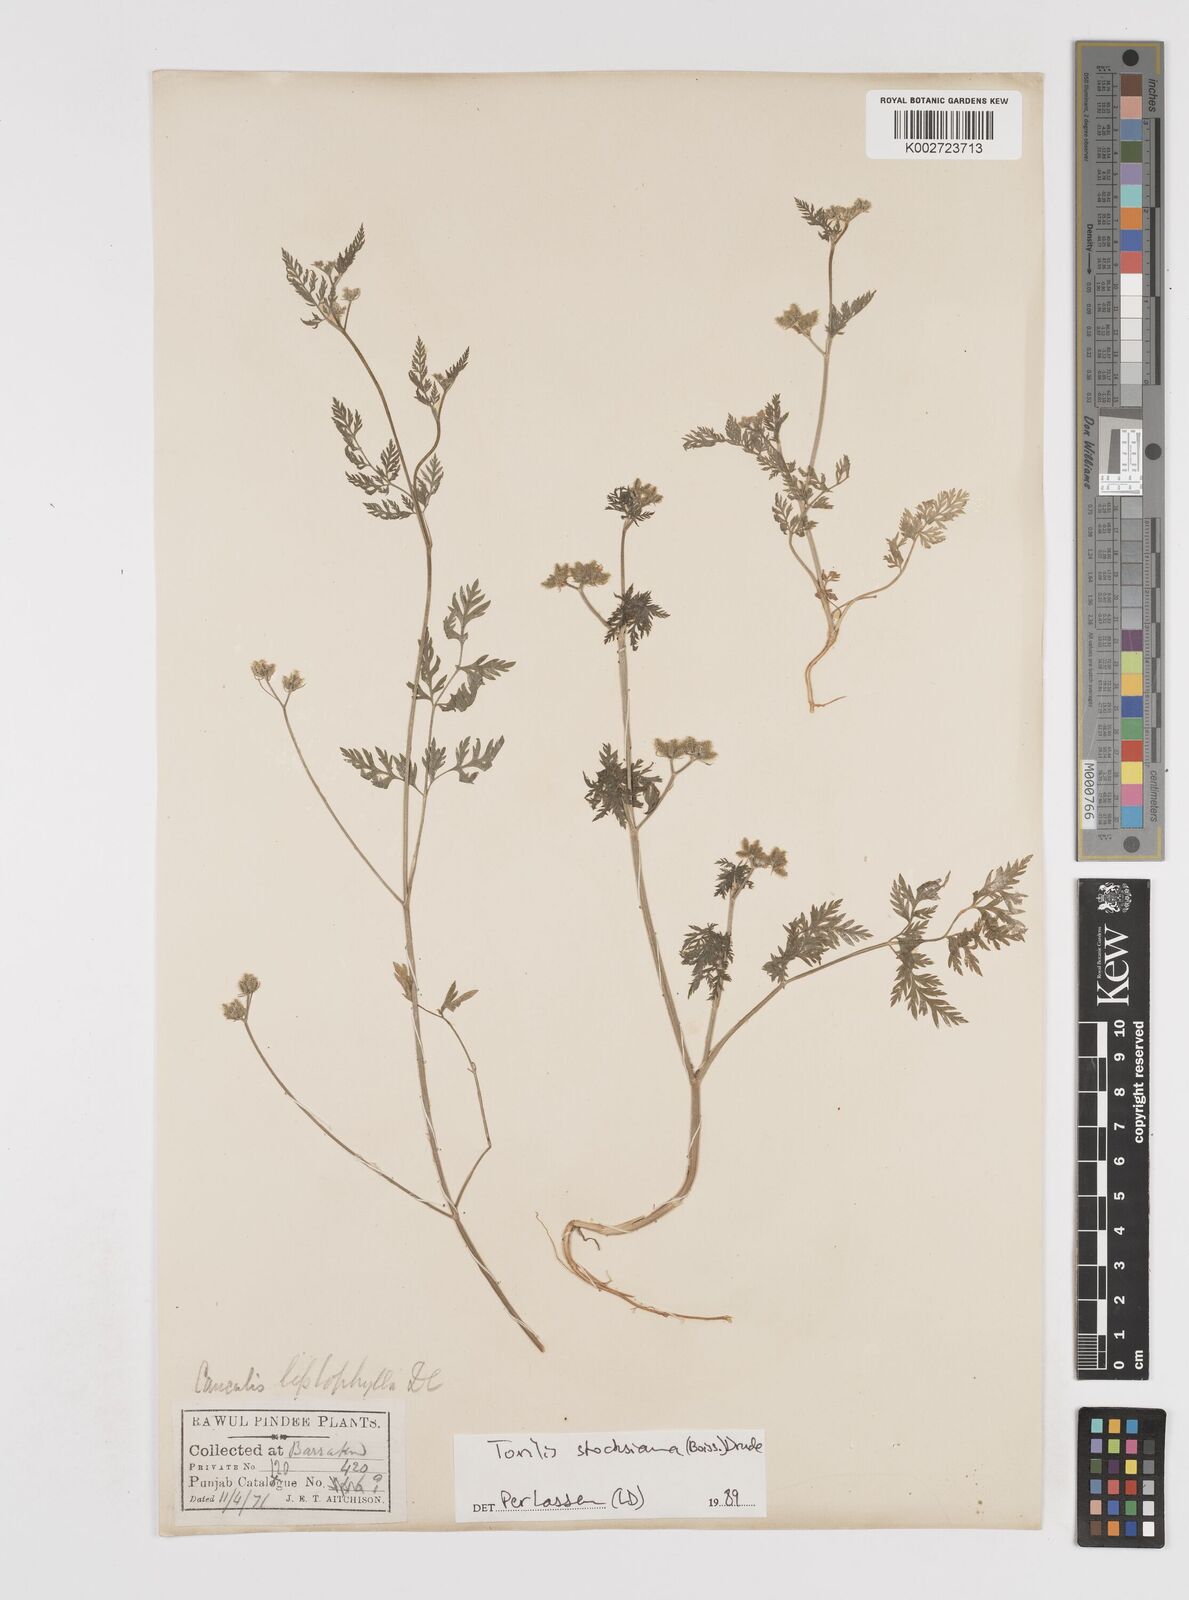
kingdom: Plantae
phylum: Tracheophyta
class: Magnoliopsida
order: Apiales
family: Apiaceae
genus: Torilis
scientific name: Torilis stocksiana
